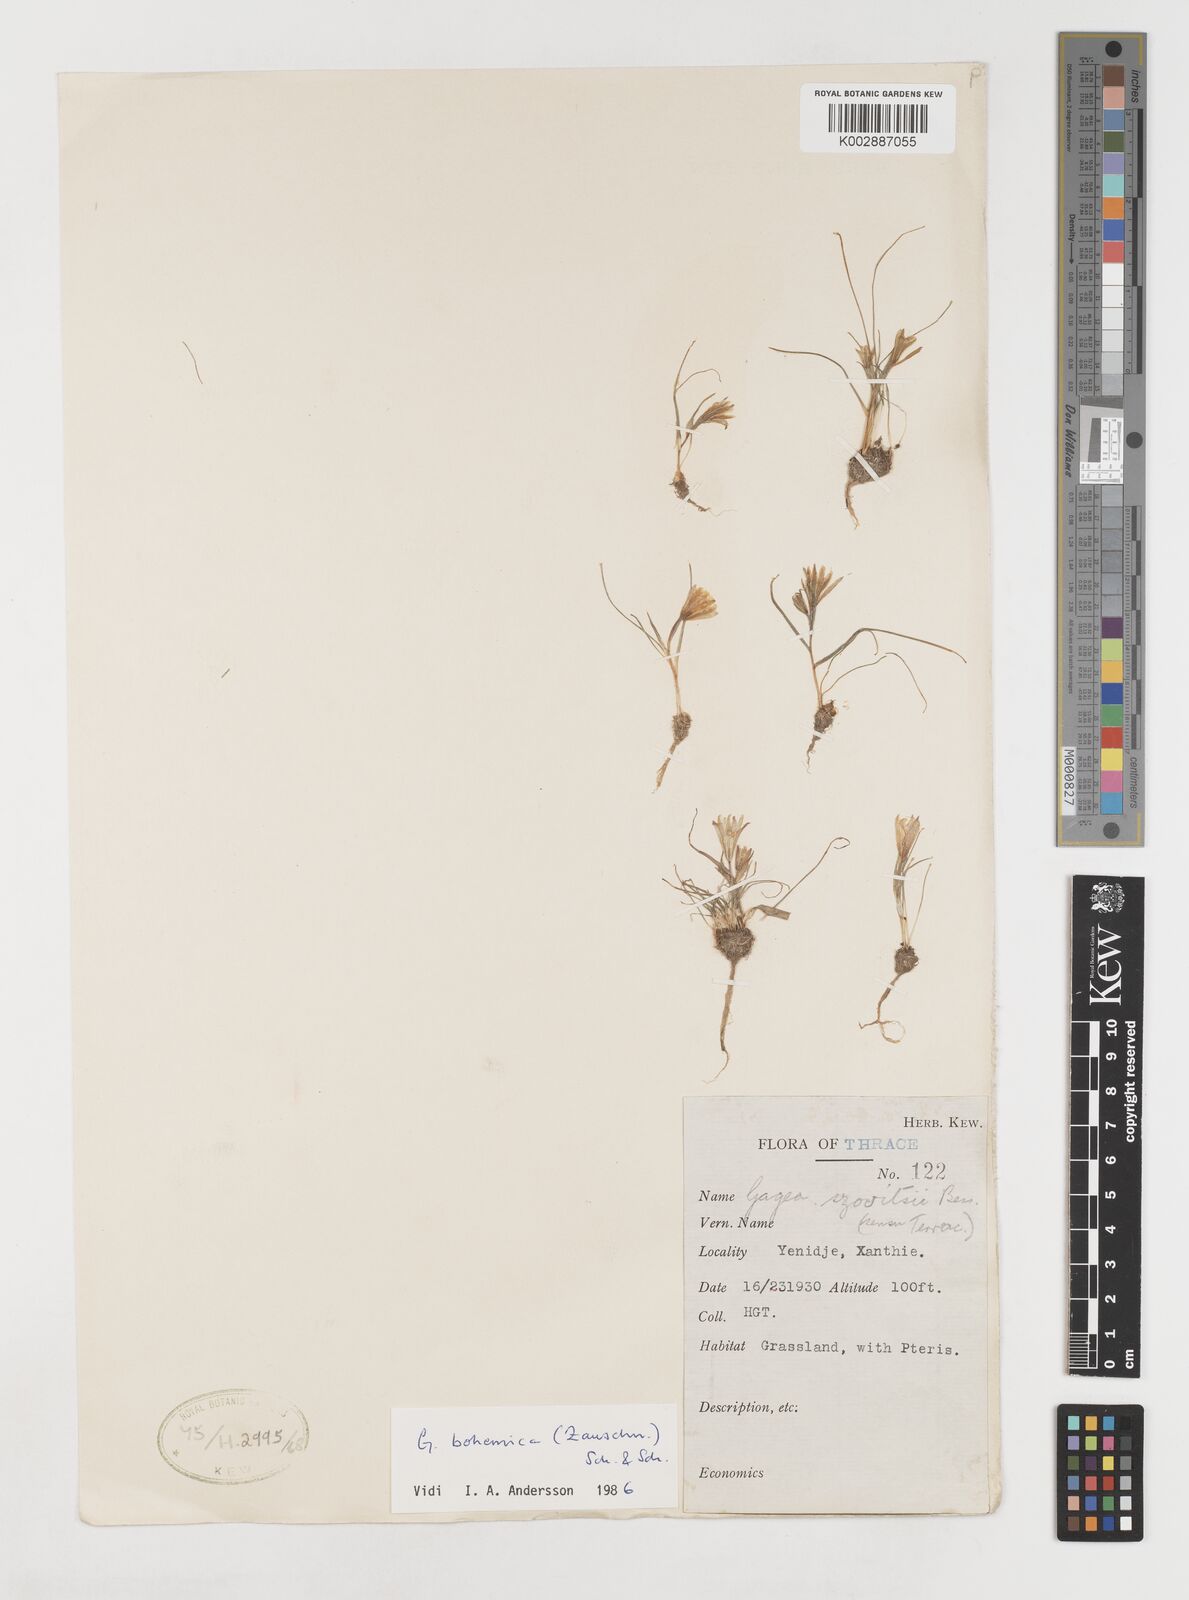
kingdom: Plantae
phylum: Tracheophyta
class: Liliopsida
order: Liliales
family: Liliaceae
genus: Gagea
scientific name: Gagea bohemica
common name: Early star-of-bethlehem
